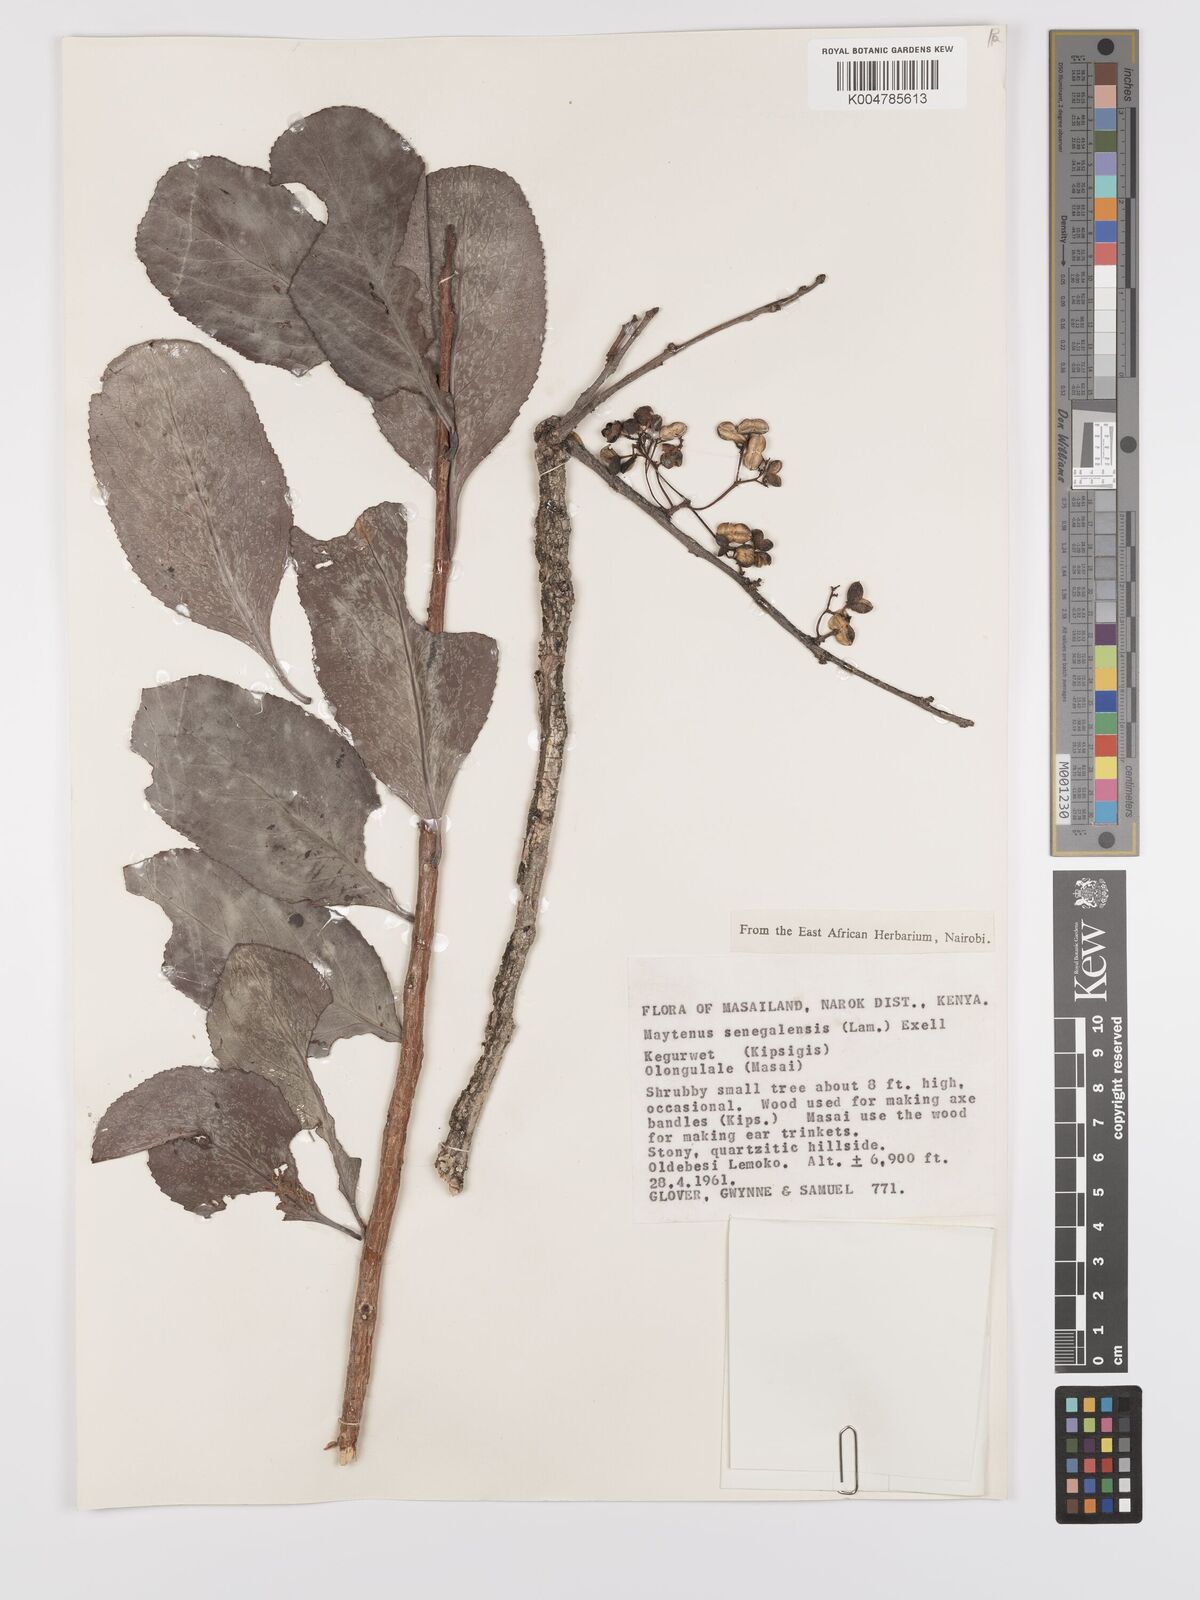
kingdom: Plantae
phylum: Tracheophyta
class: Magnoliopsida
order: Celastrales
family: Celastraceae
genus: Gymnosporia
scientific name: Gymnosporia senegalensis
